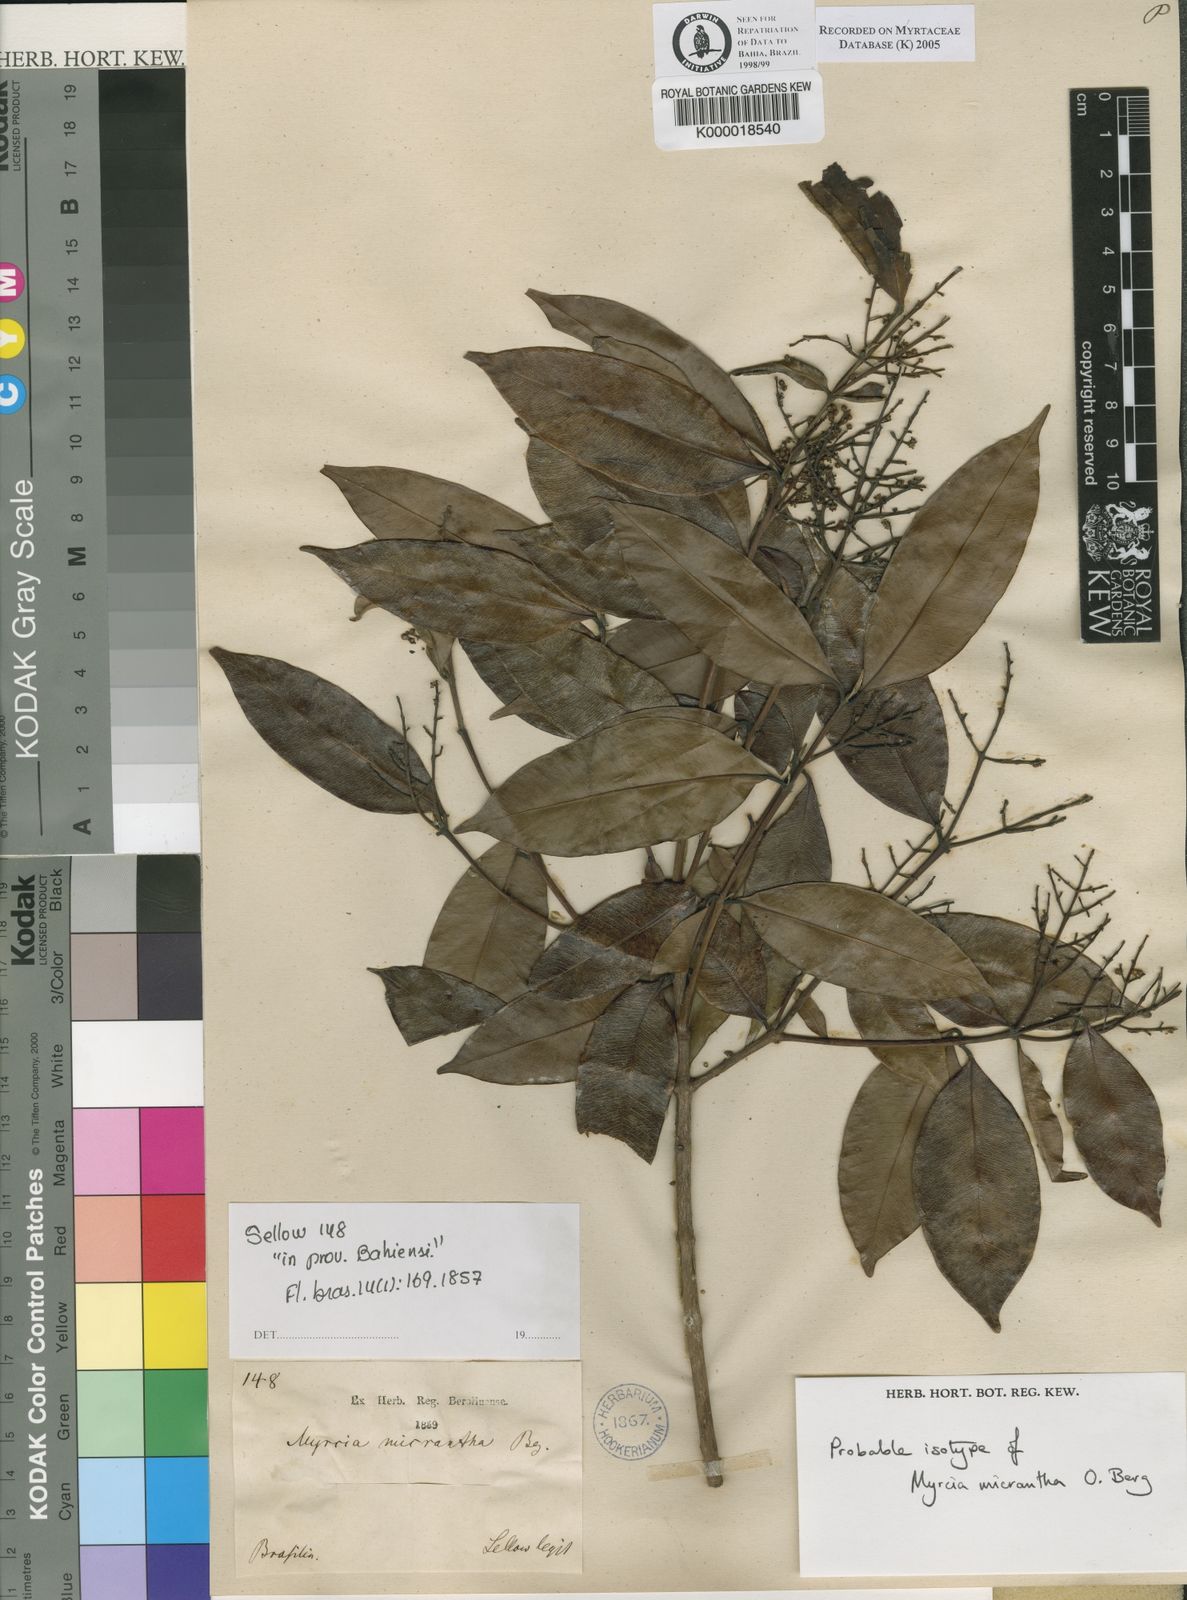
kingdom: Plantae
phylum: Tracheophyta
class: Magnoliopsida
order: Myrtales
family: Myrtaceae
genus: Myrcia
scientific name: Myrcia splendens
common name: Surinam cherry
